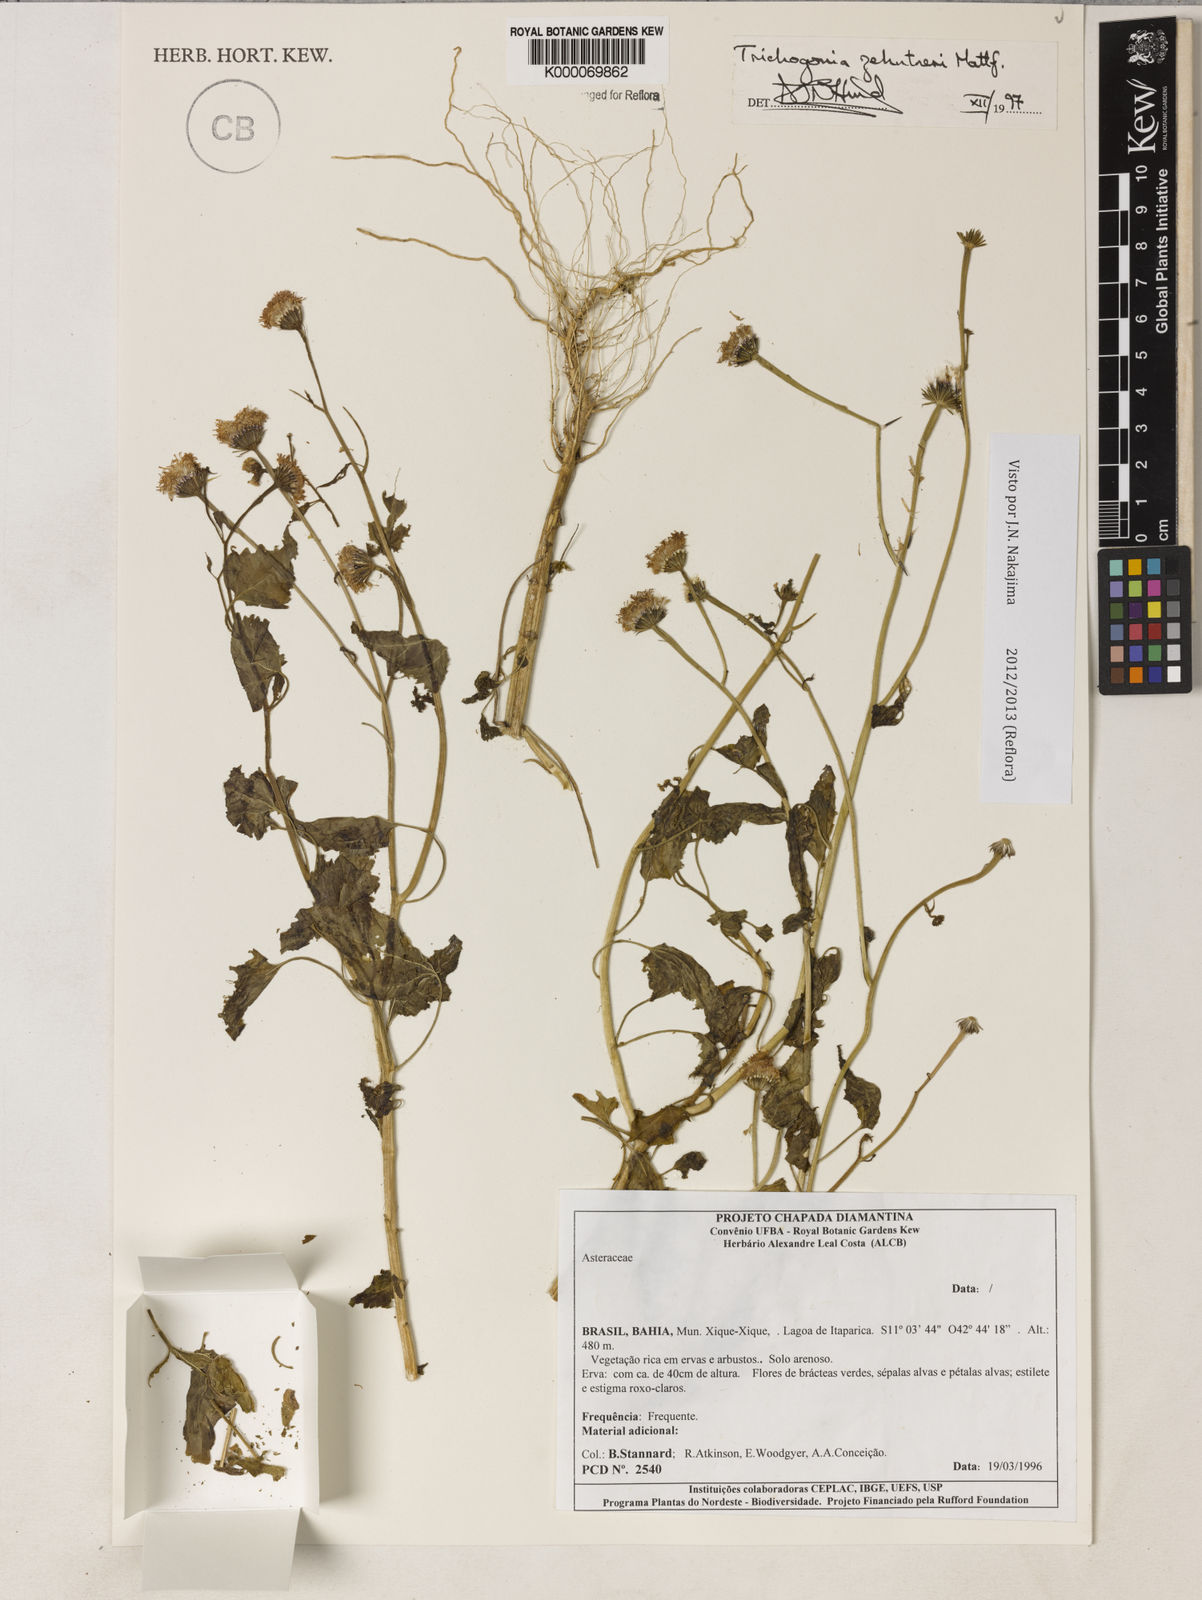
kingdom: Plantae
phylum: Tracheophyta
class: Magnoliopsida
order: Asterales
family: Asteraceae
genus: Trichogonia
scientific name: Trichogonia eupatorioides
